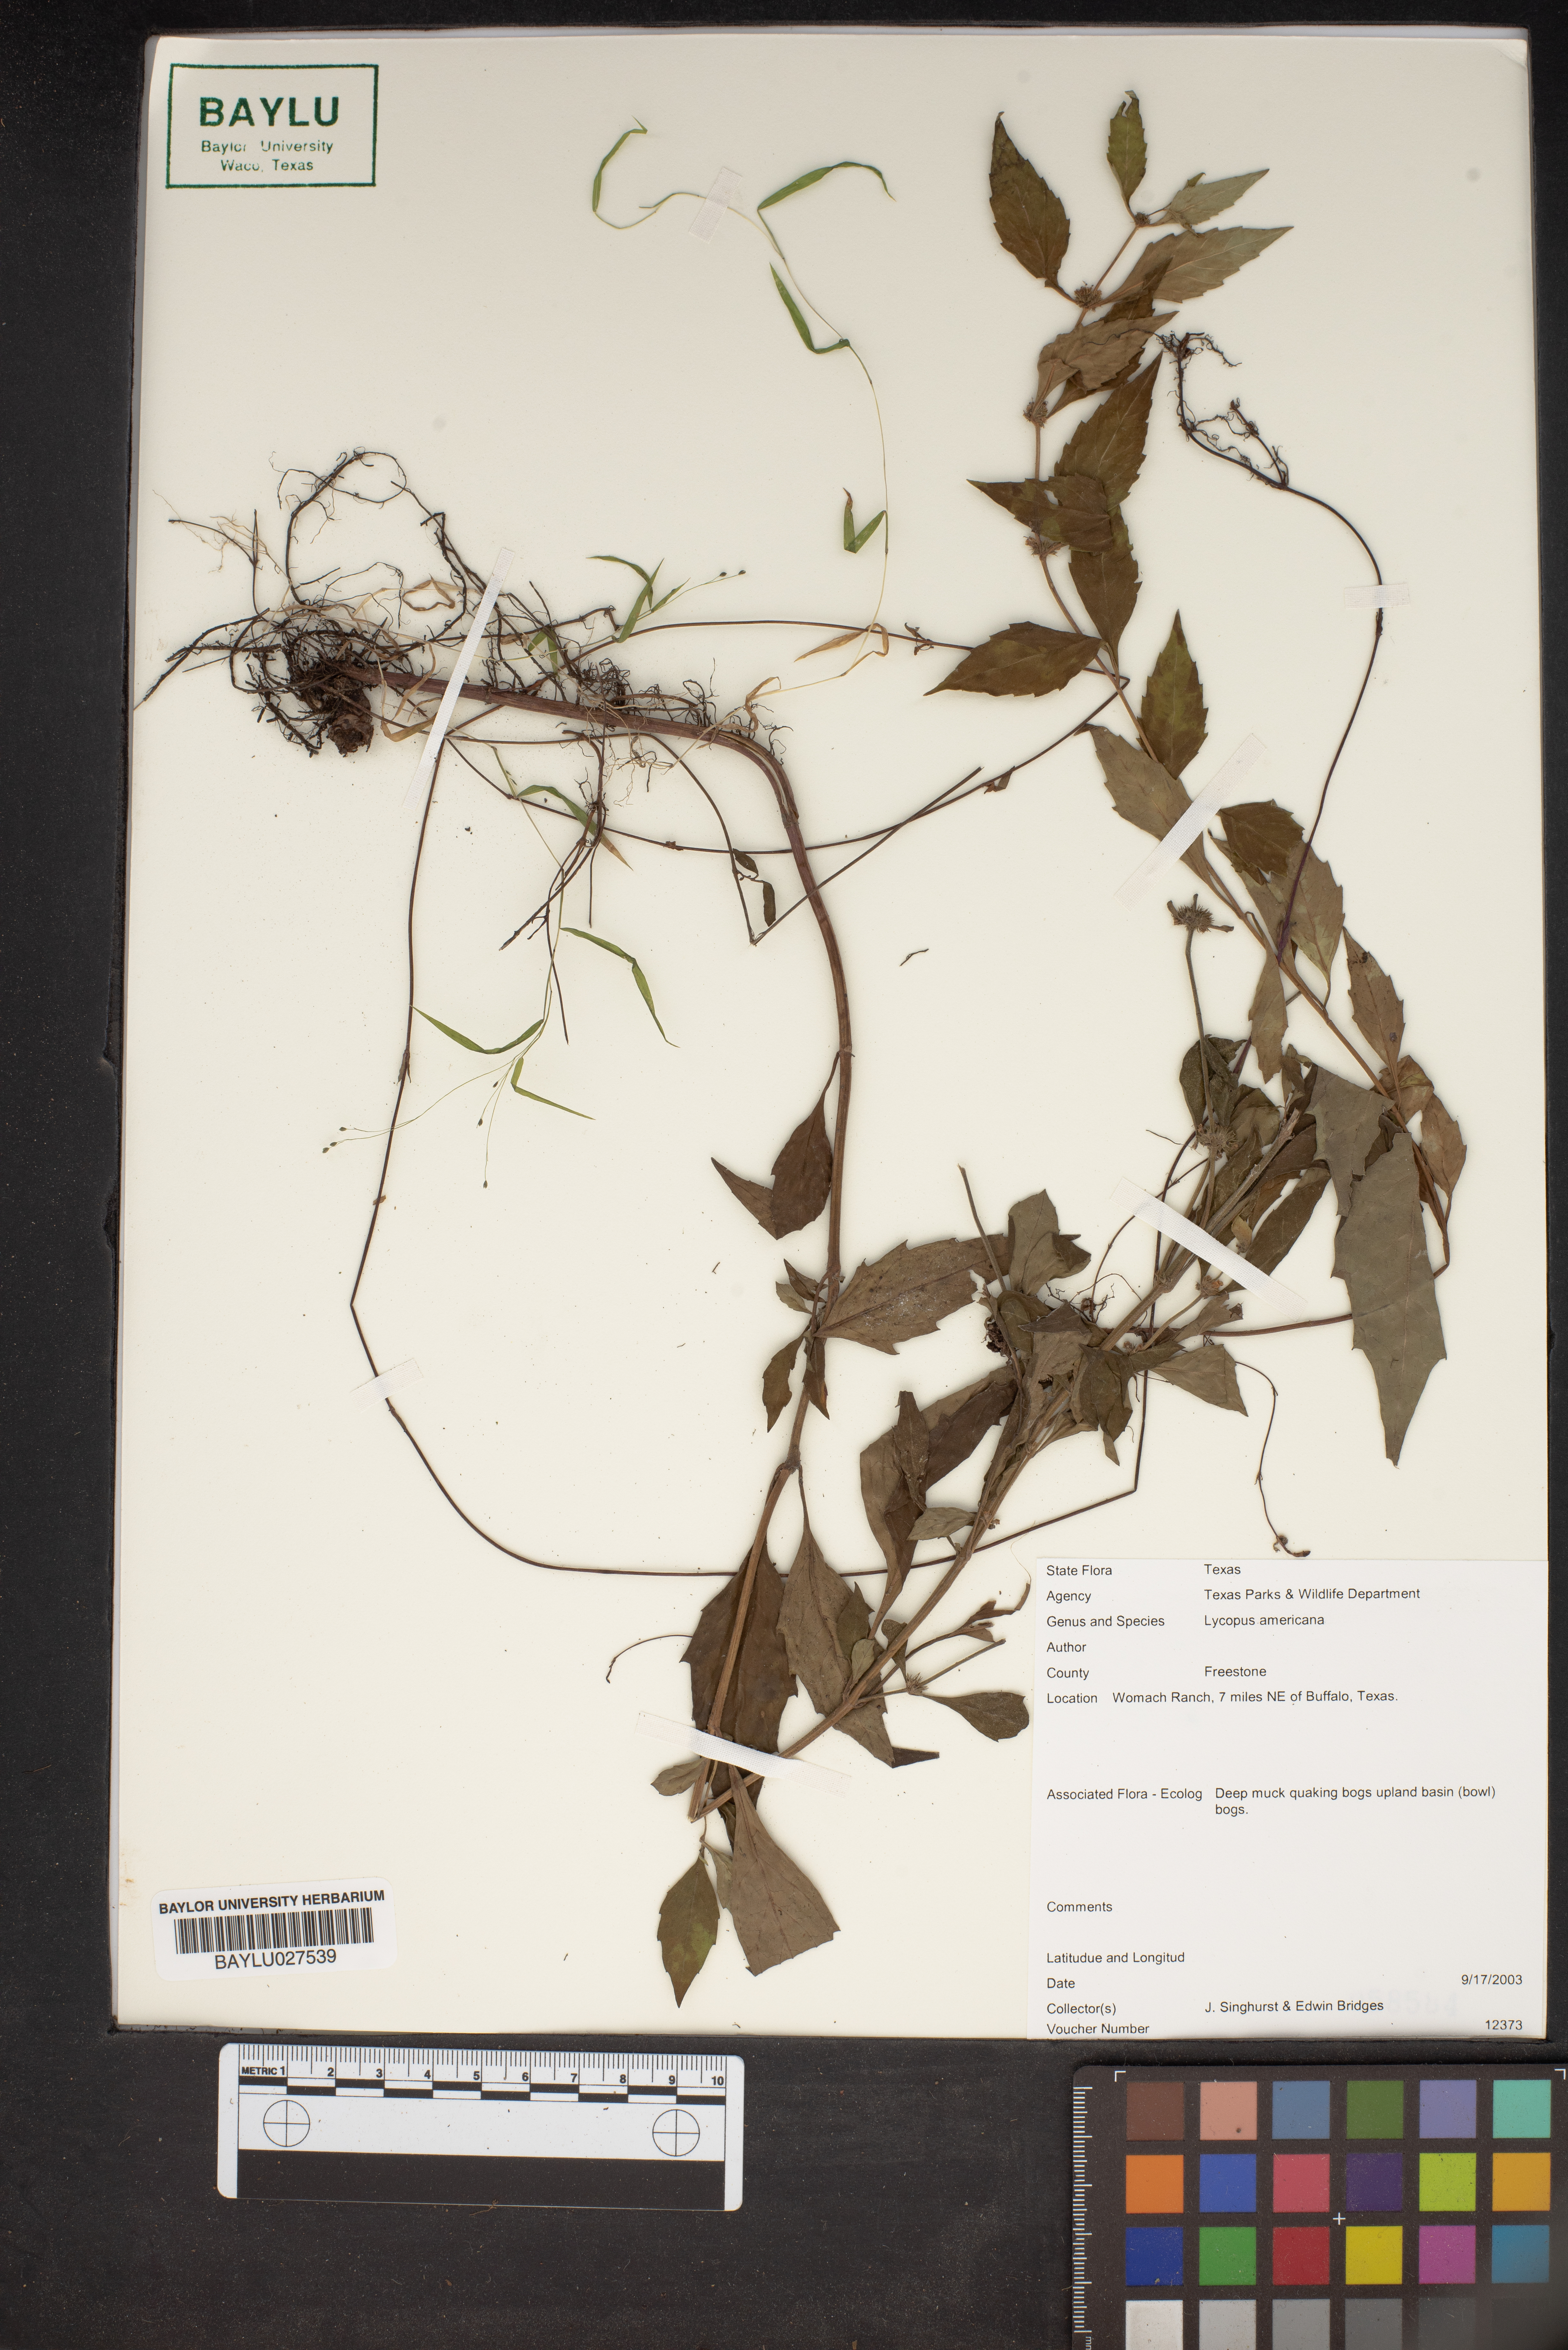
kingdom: Plantae
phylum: Tracheophyta
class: Magnoliopsida
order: Lamiales
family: Lamiaceae
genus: Lycopus
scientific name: Lycopus americanus
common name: American bugleweed
